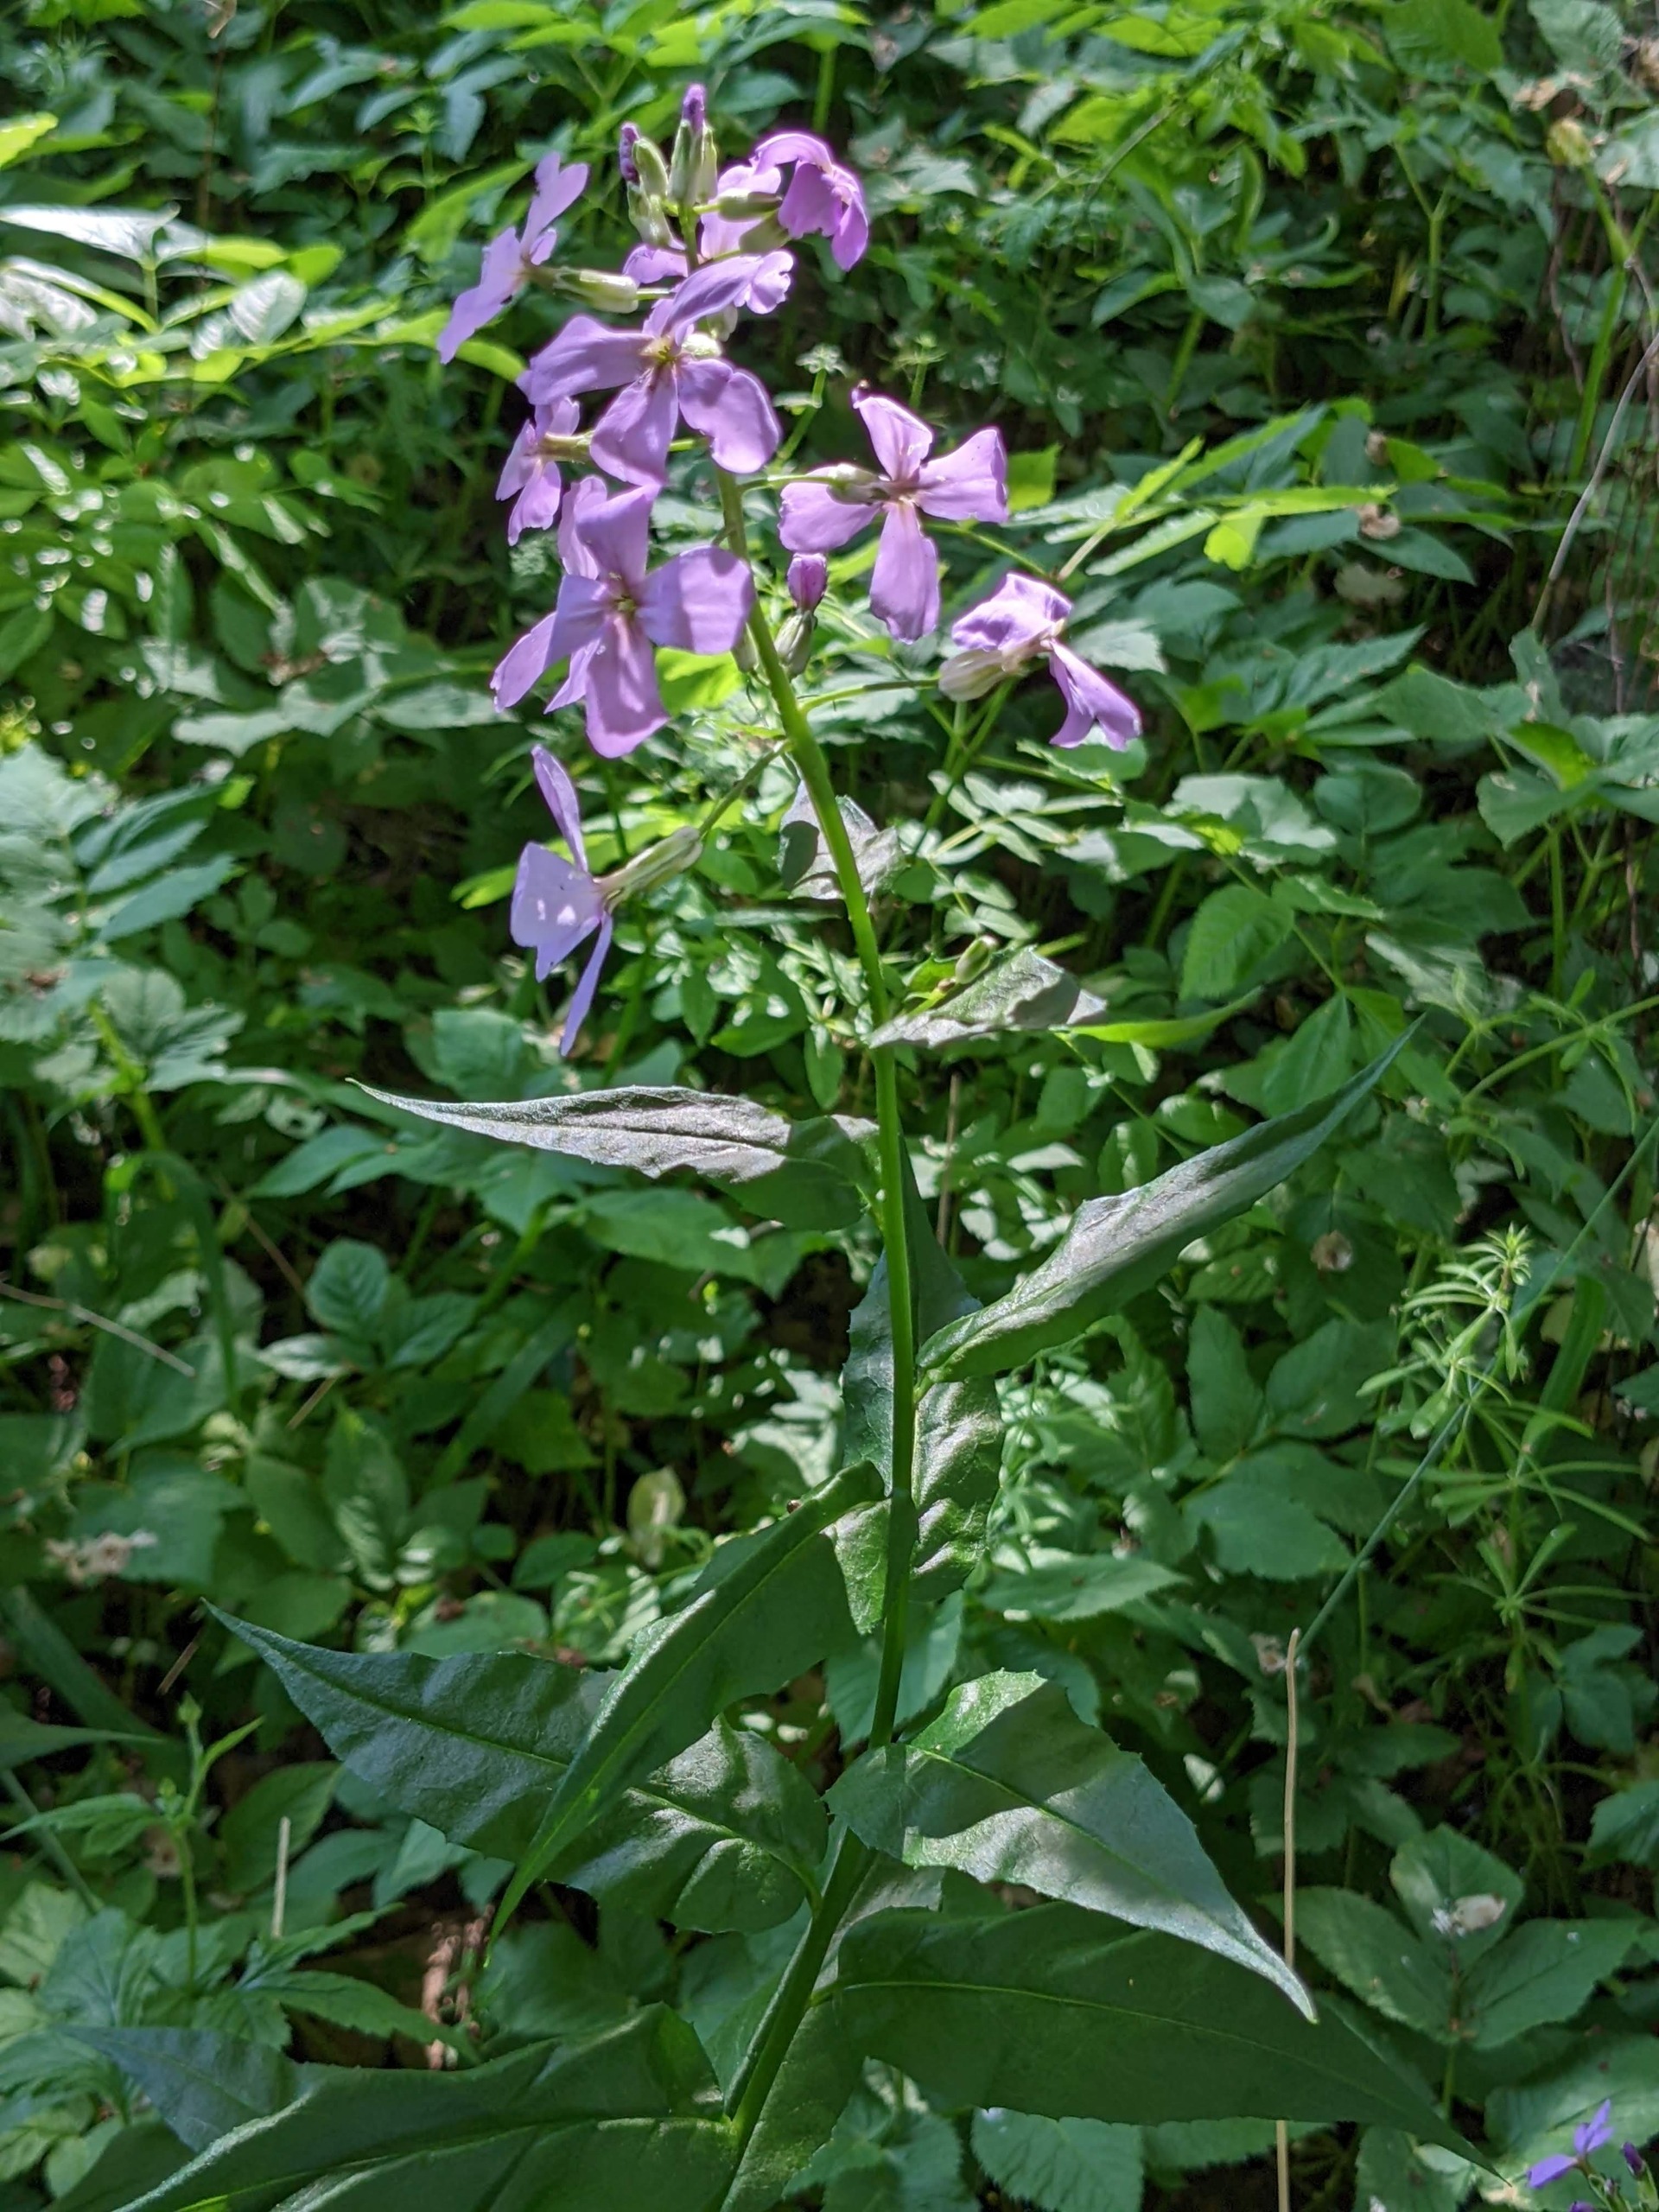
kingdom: Plantae
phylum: Tracheophyta
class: Magnoliopsida
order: Brassicales
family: Brassicaceae
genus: Hesperis
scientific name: Hesperis matronalis
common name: Aftenstjerne
